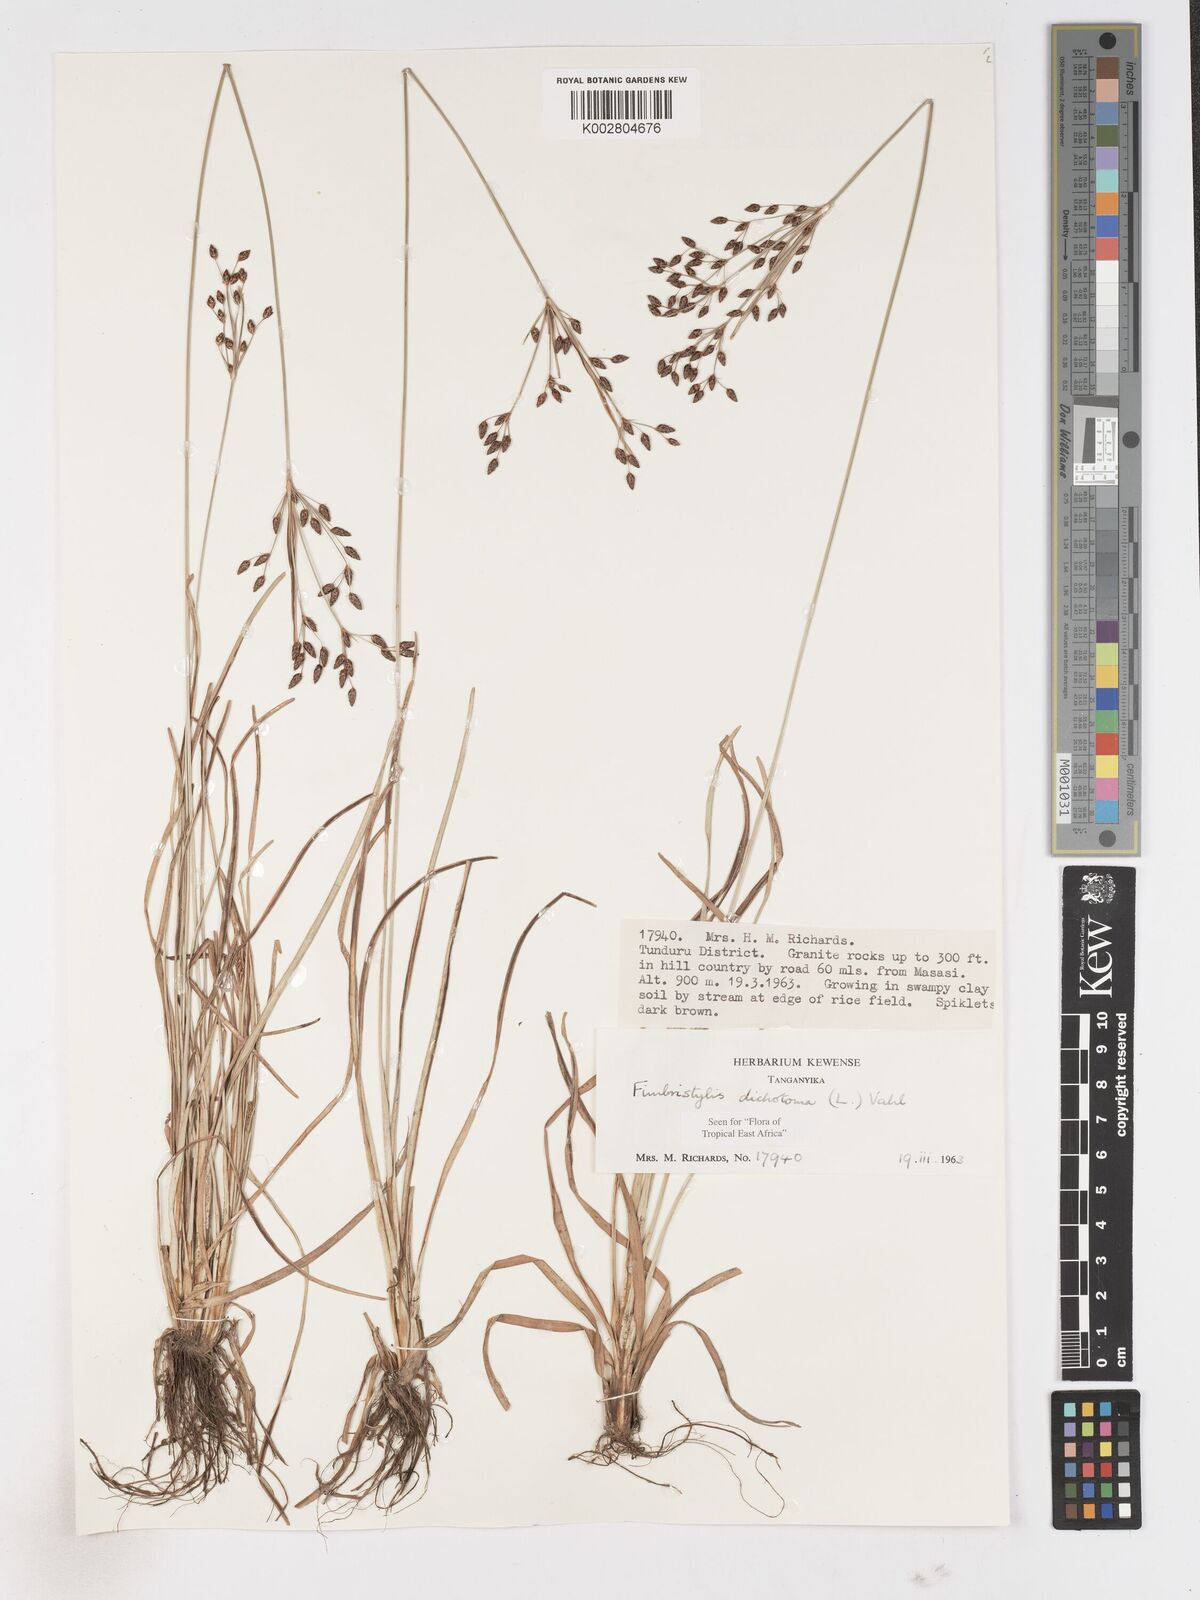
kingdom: Plantae
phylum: Tracheophyta
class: Liliopsida
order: Poales
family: Cyperaceae
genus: Fimbristylis
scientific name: Fimbristylis dichotoma
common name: Forked fimbry
